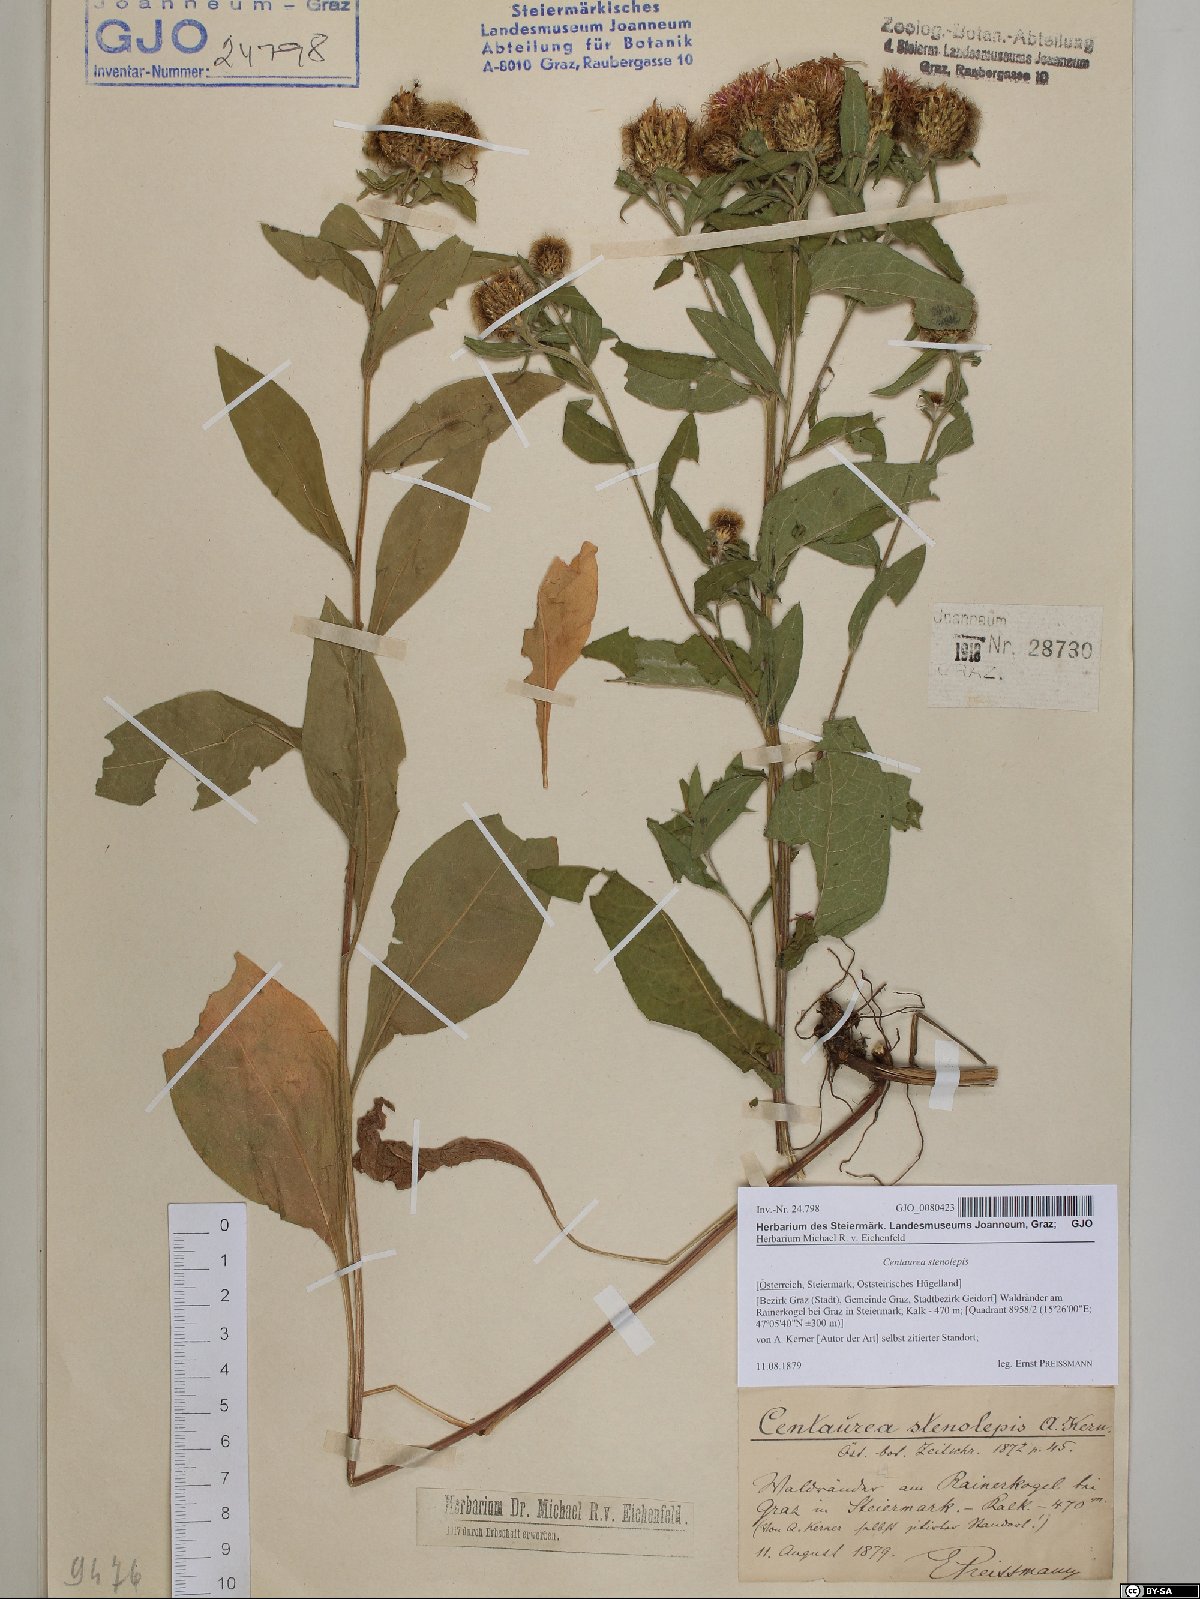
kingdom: Plantae
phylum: Tracheophyta
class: Magnoliopsida
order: Asterales
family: Asteraceae
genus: Centaurea
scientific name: Centaurea stenolepis
